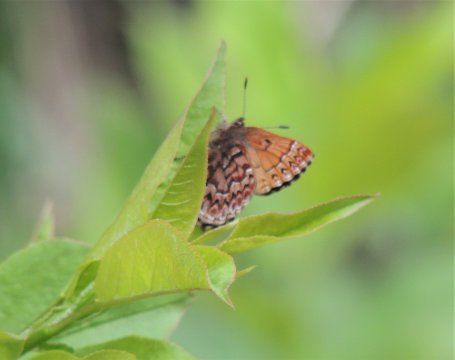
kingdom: Animalia
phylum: Arthropoda
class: Insecta
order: Lepidoptera
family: Lycaenidae
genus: Incisalia
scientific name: Incisalia eryphon
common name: Western Pine Elfin
